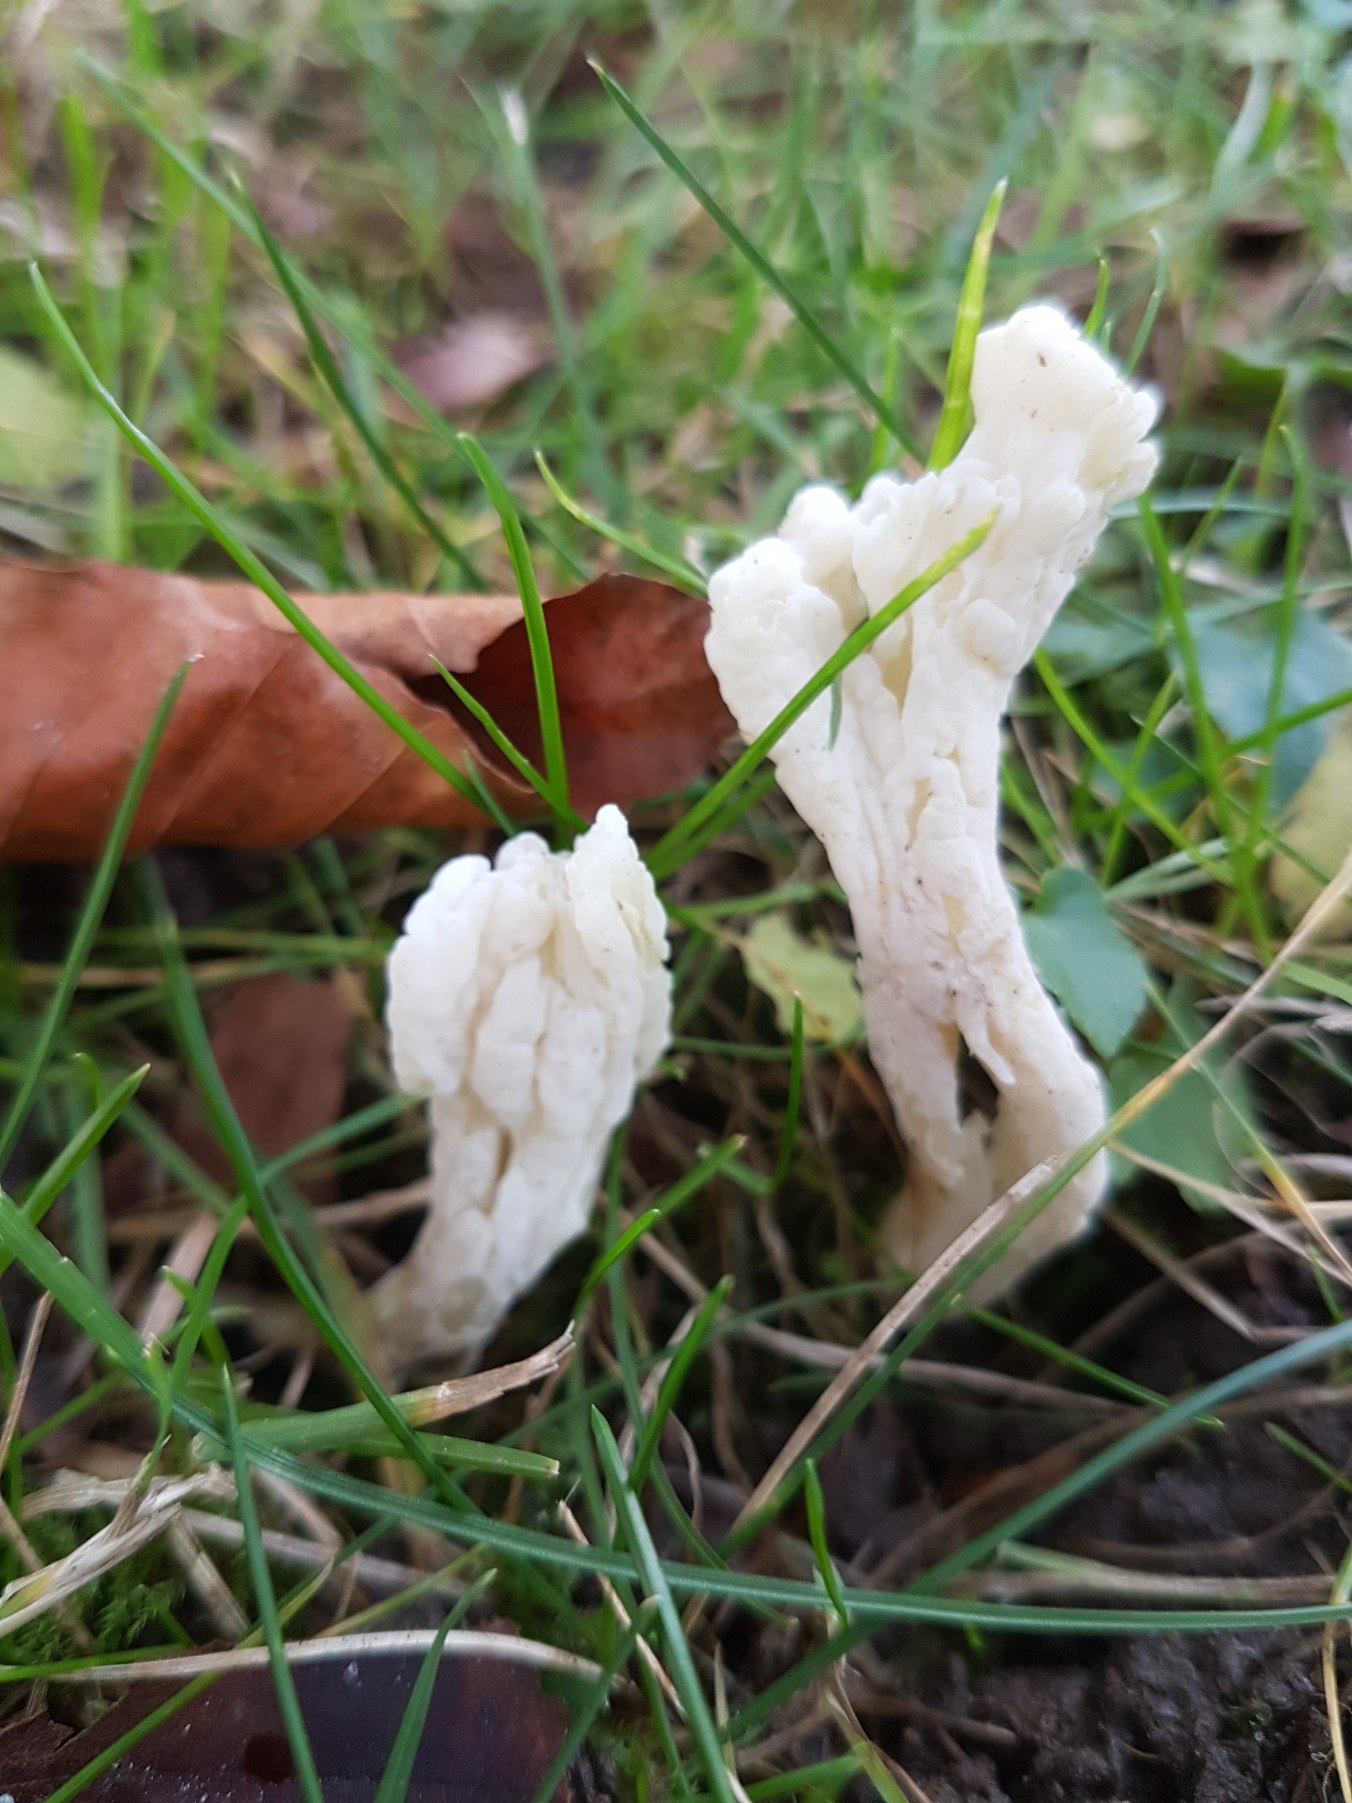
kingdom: Fungi
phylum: Basidiomycota
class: Agaricomycetes
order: Cantharellales
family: Hydnaceae
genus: Clavulina
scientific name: Clavulina rugosa
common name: Rynket troldkølle
